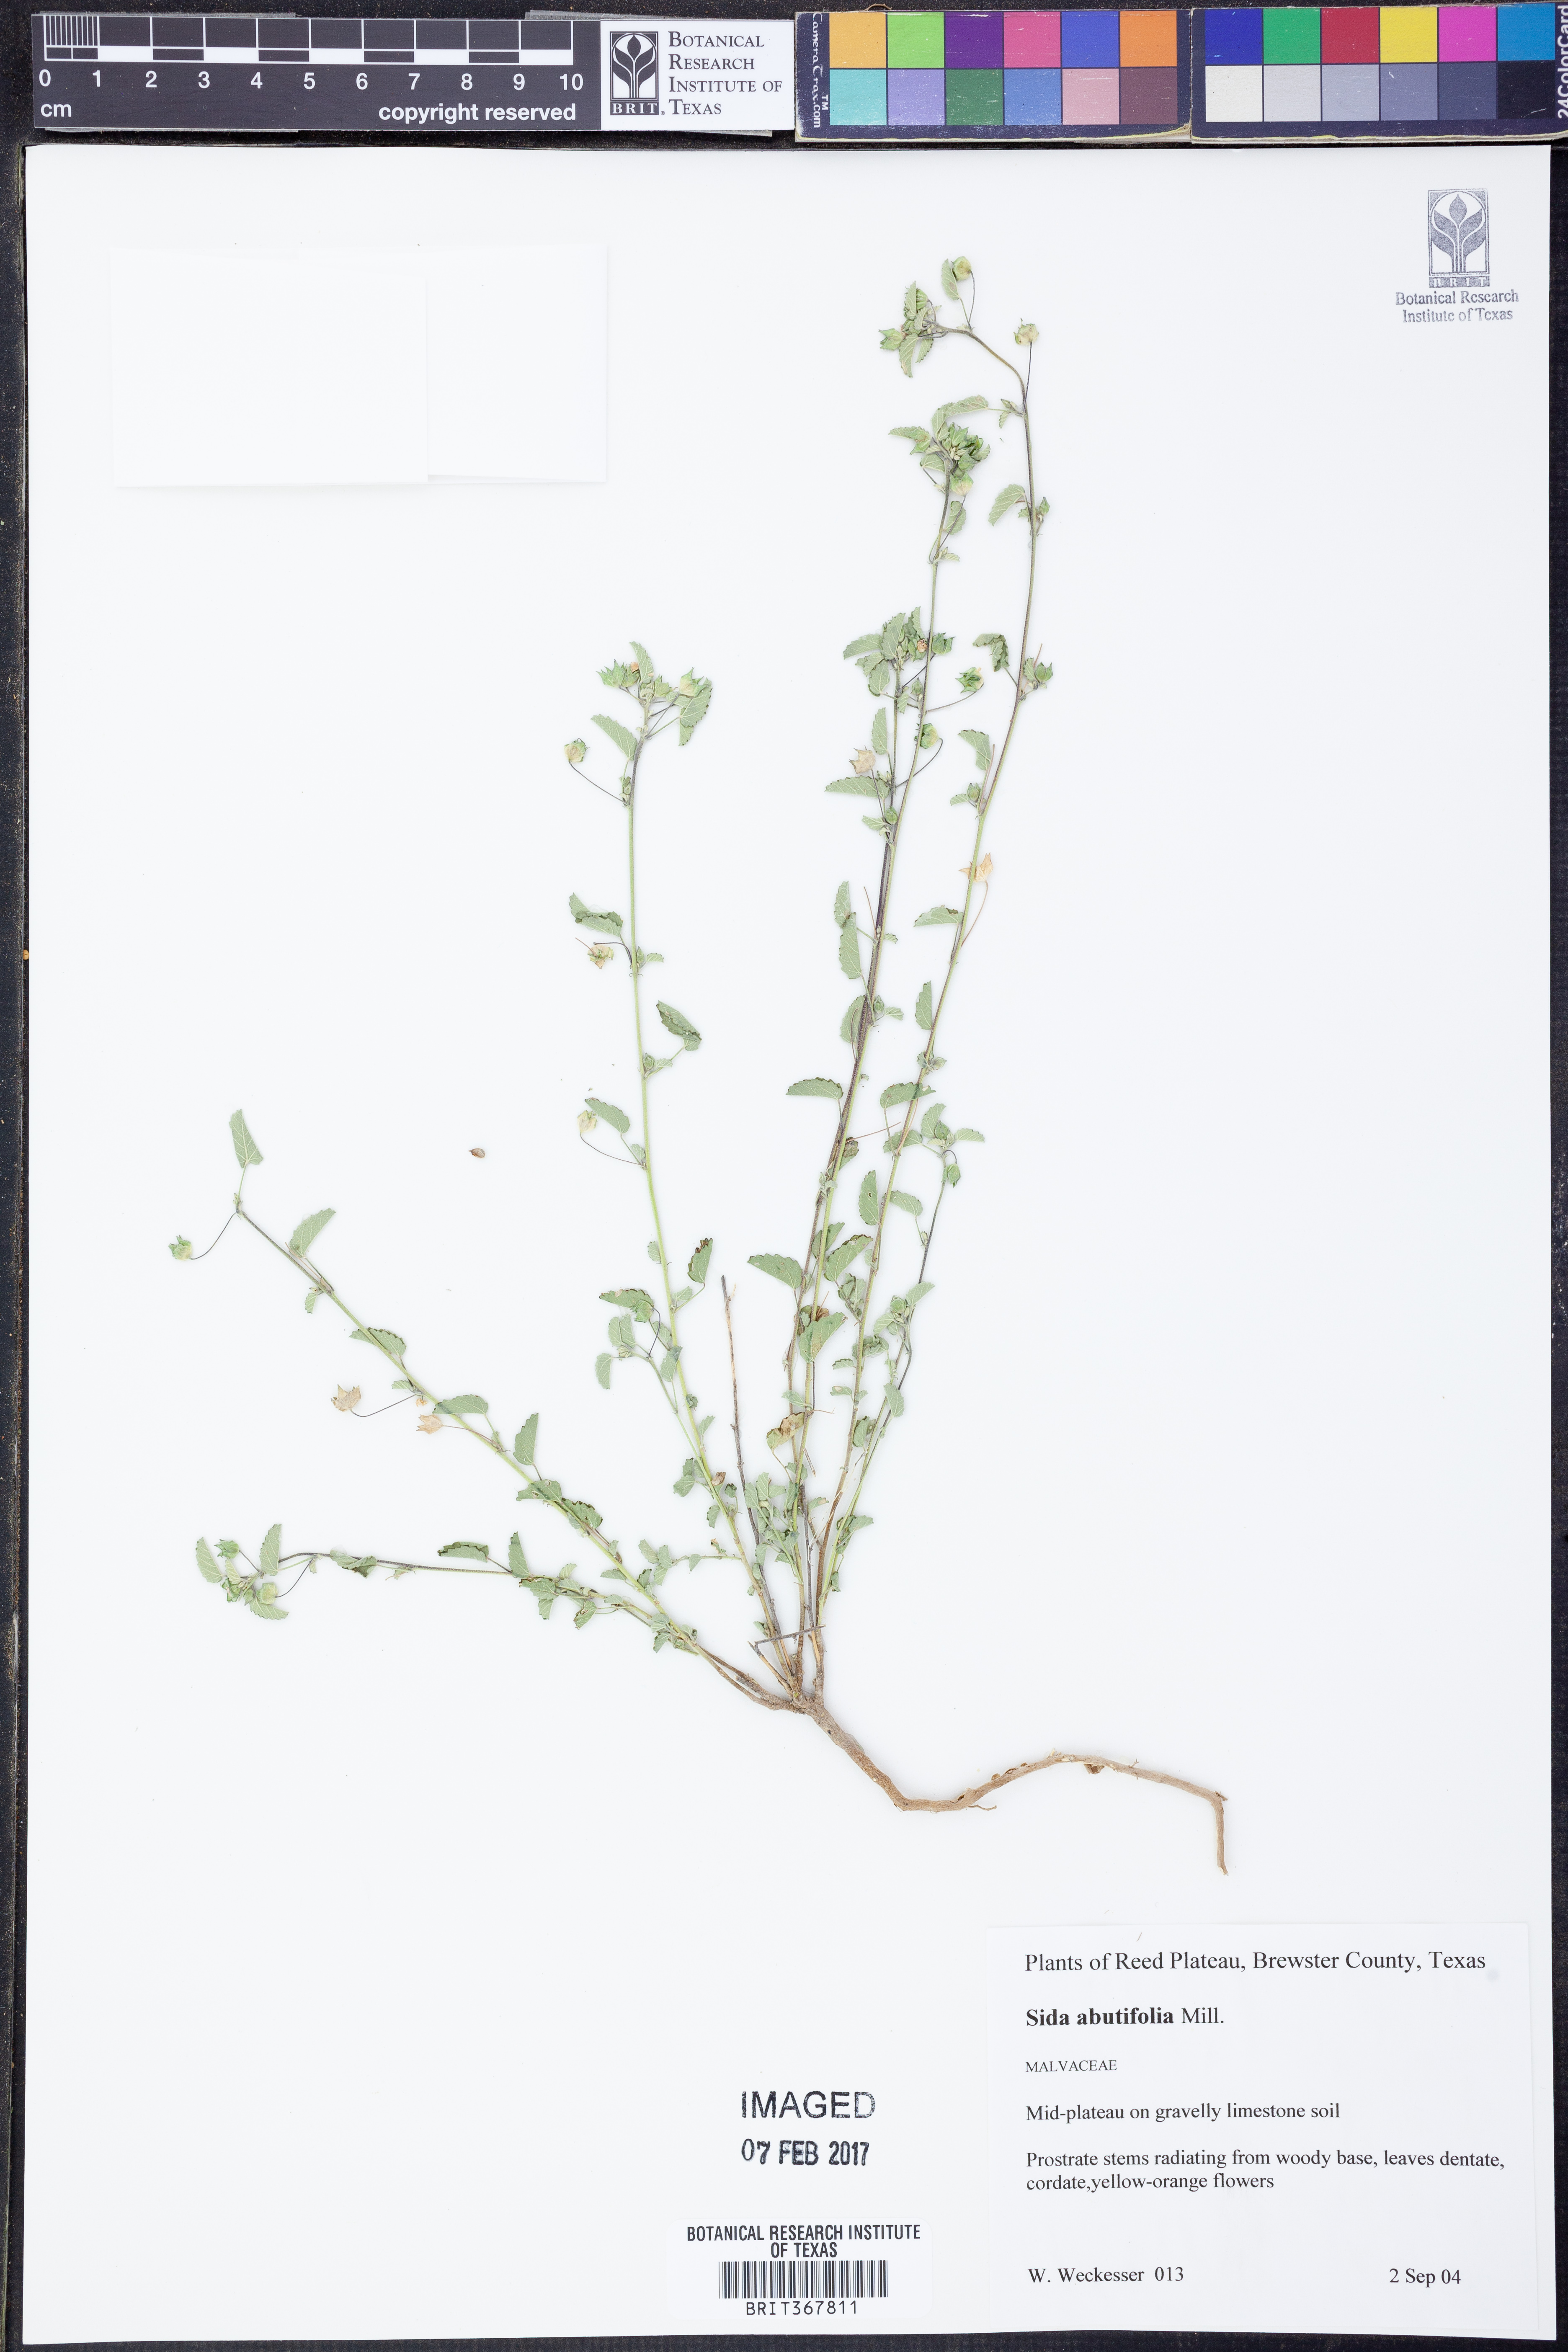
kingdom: Plantae
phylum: Tracheophyta
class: Magnoliopsida
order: Malvales
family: Malvaceae
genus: Sida
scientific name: Sida abutifolia
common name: Spreading fantails
